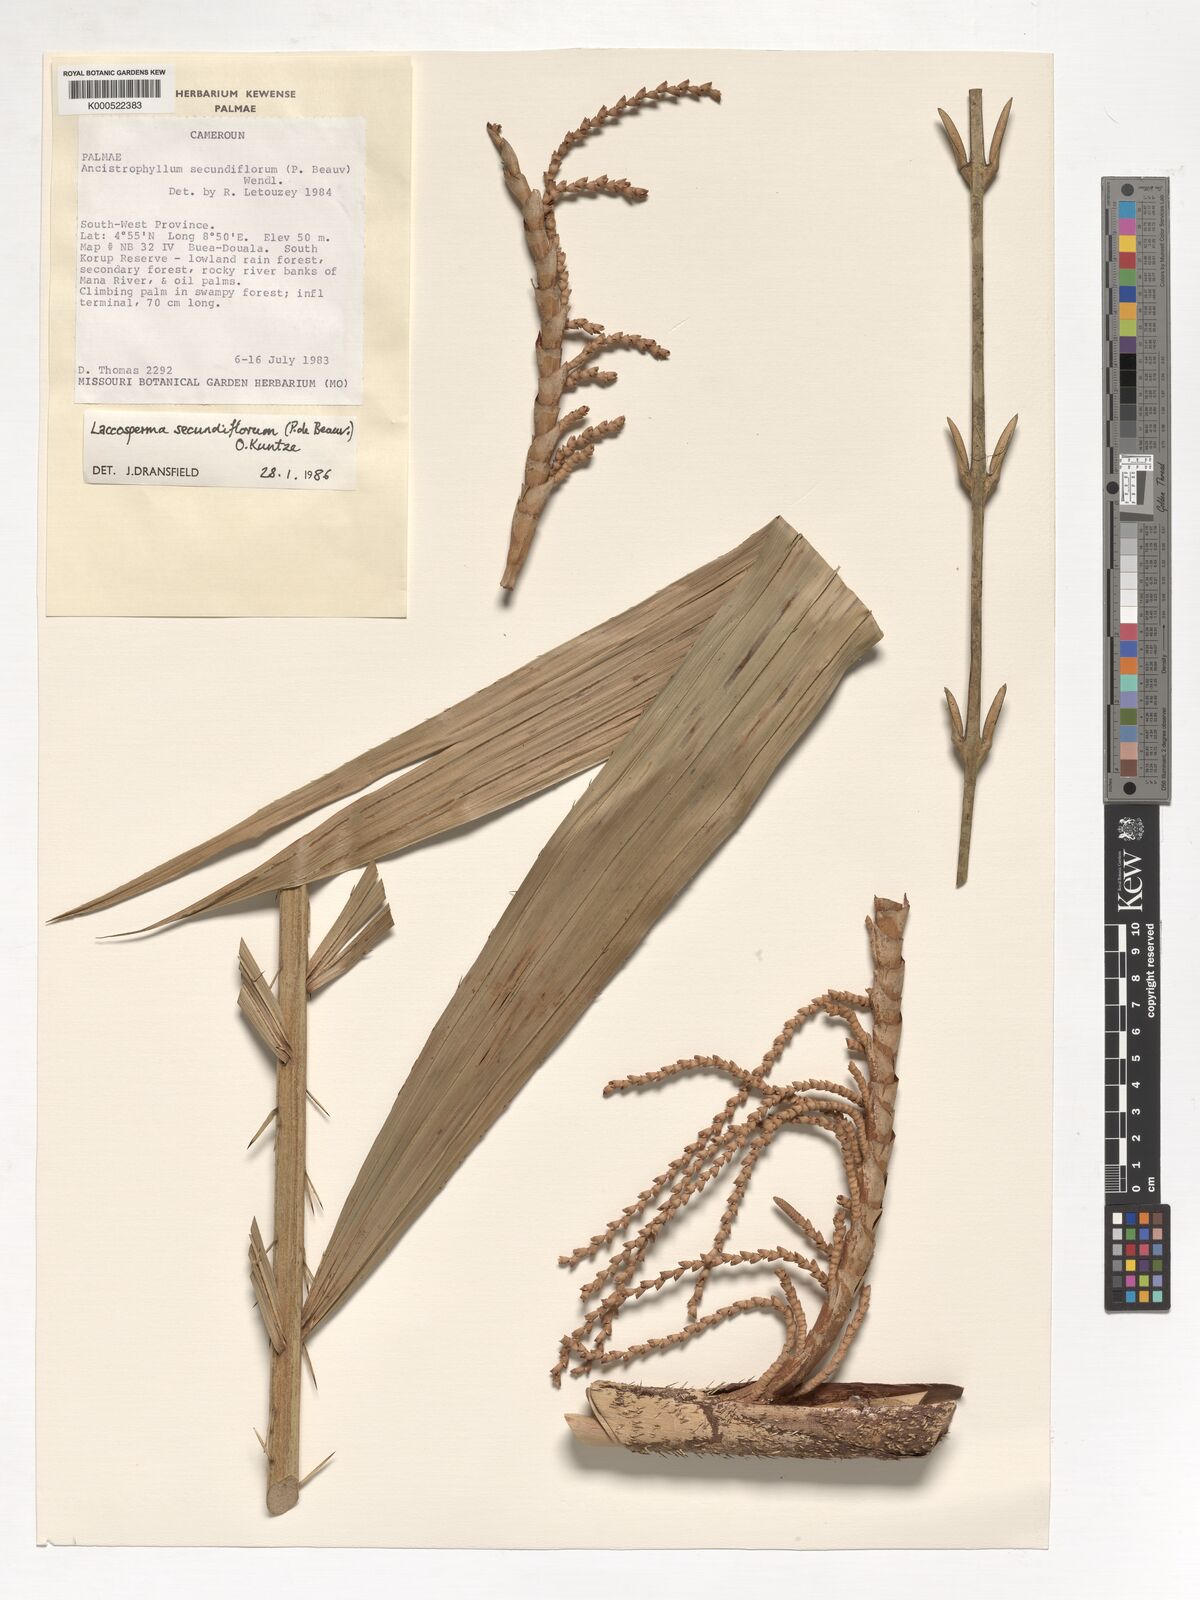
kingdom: Plantae
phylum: Tracheophyta
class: Liliopsida
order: Arecales
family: Arecaceae
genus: Laccosperma
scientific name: Laccosperma secundiflorum
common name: Rattan
